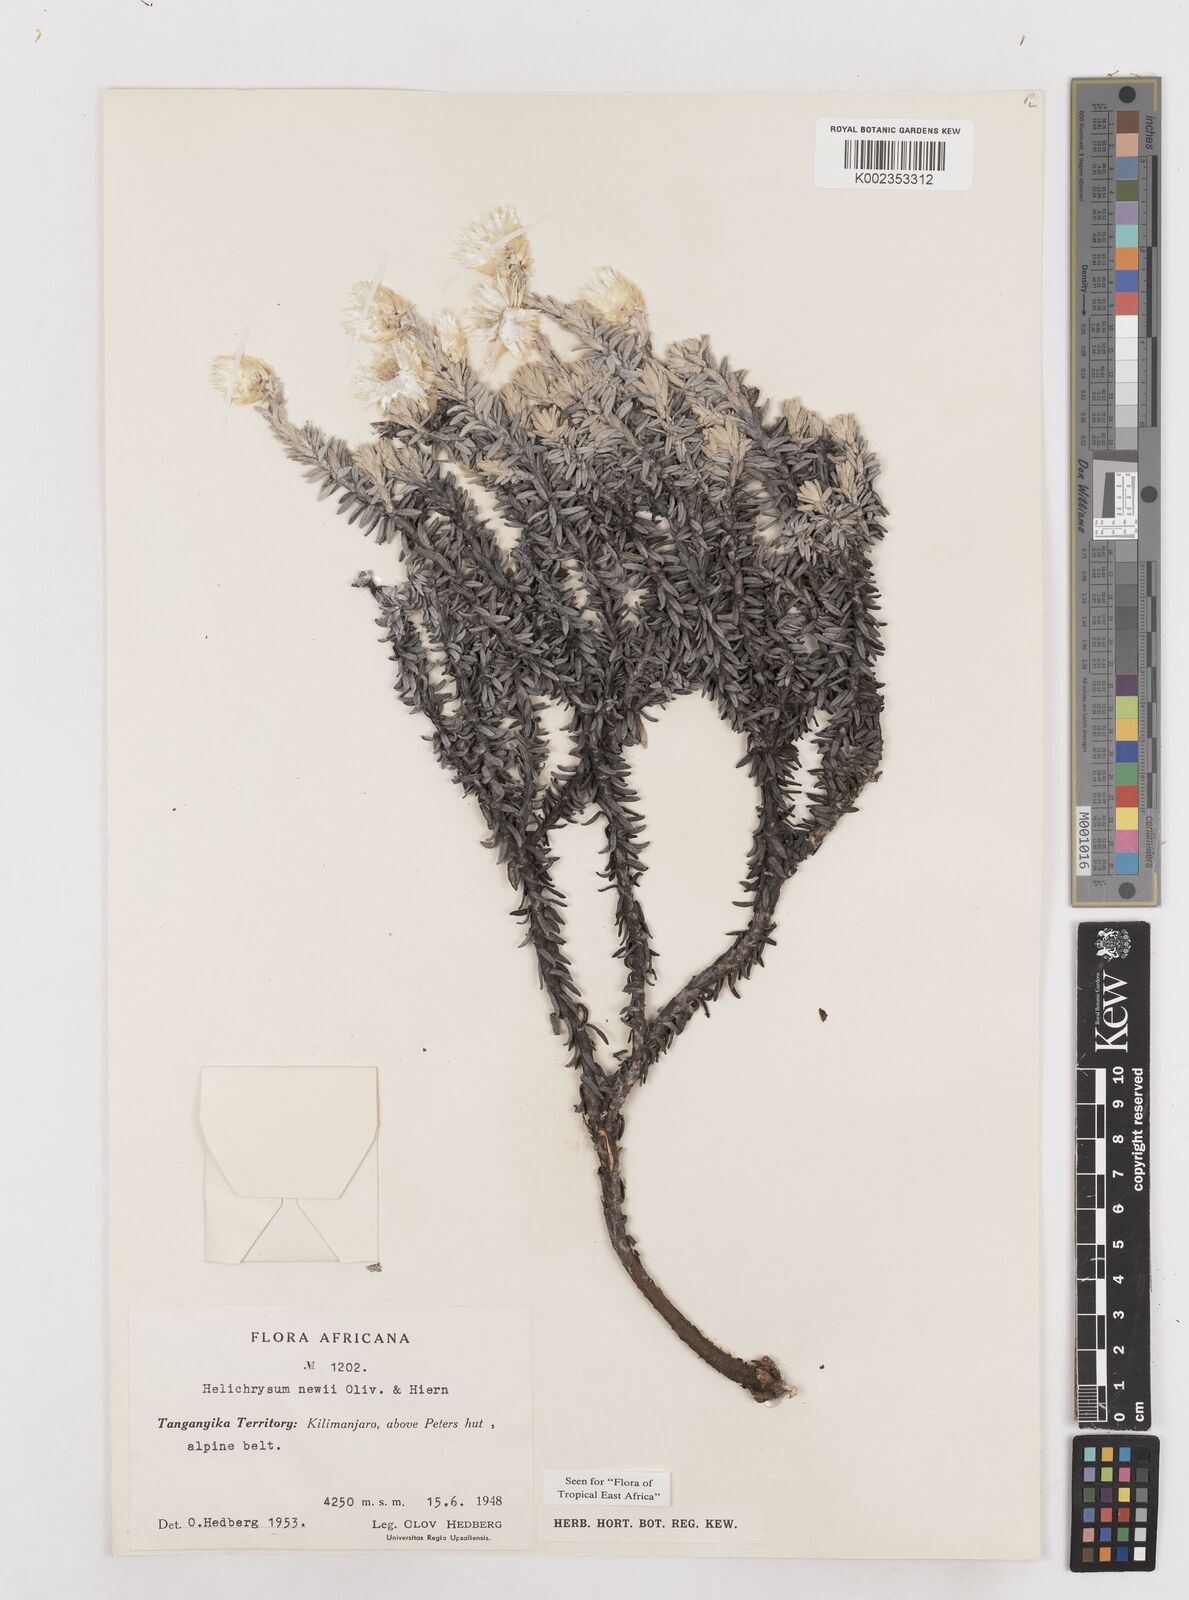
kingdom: Plantae
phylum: Tracheophyta
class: Magnoliopsida
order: Asterales
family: Asteraceae
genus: Helichrysum
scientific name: Helichrysum newii
